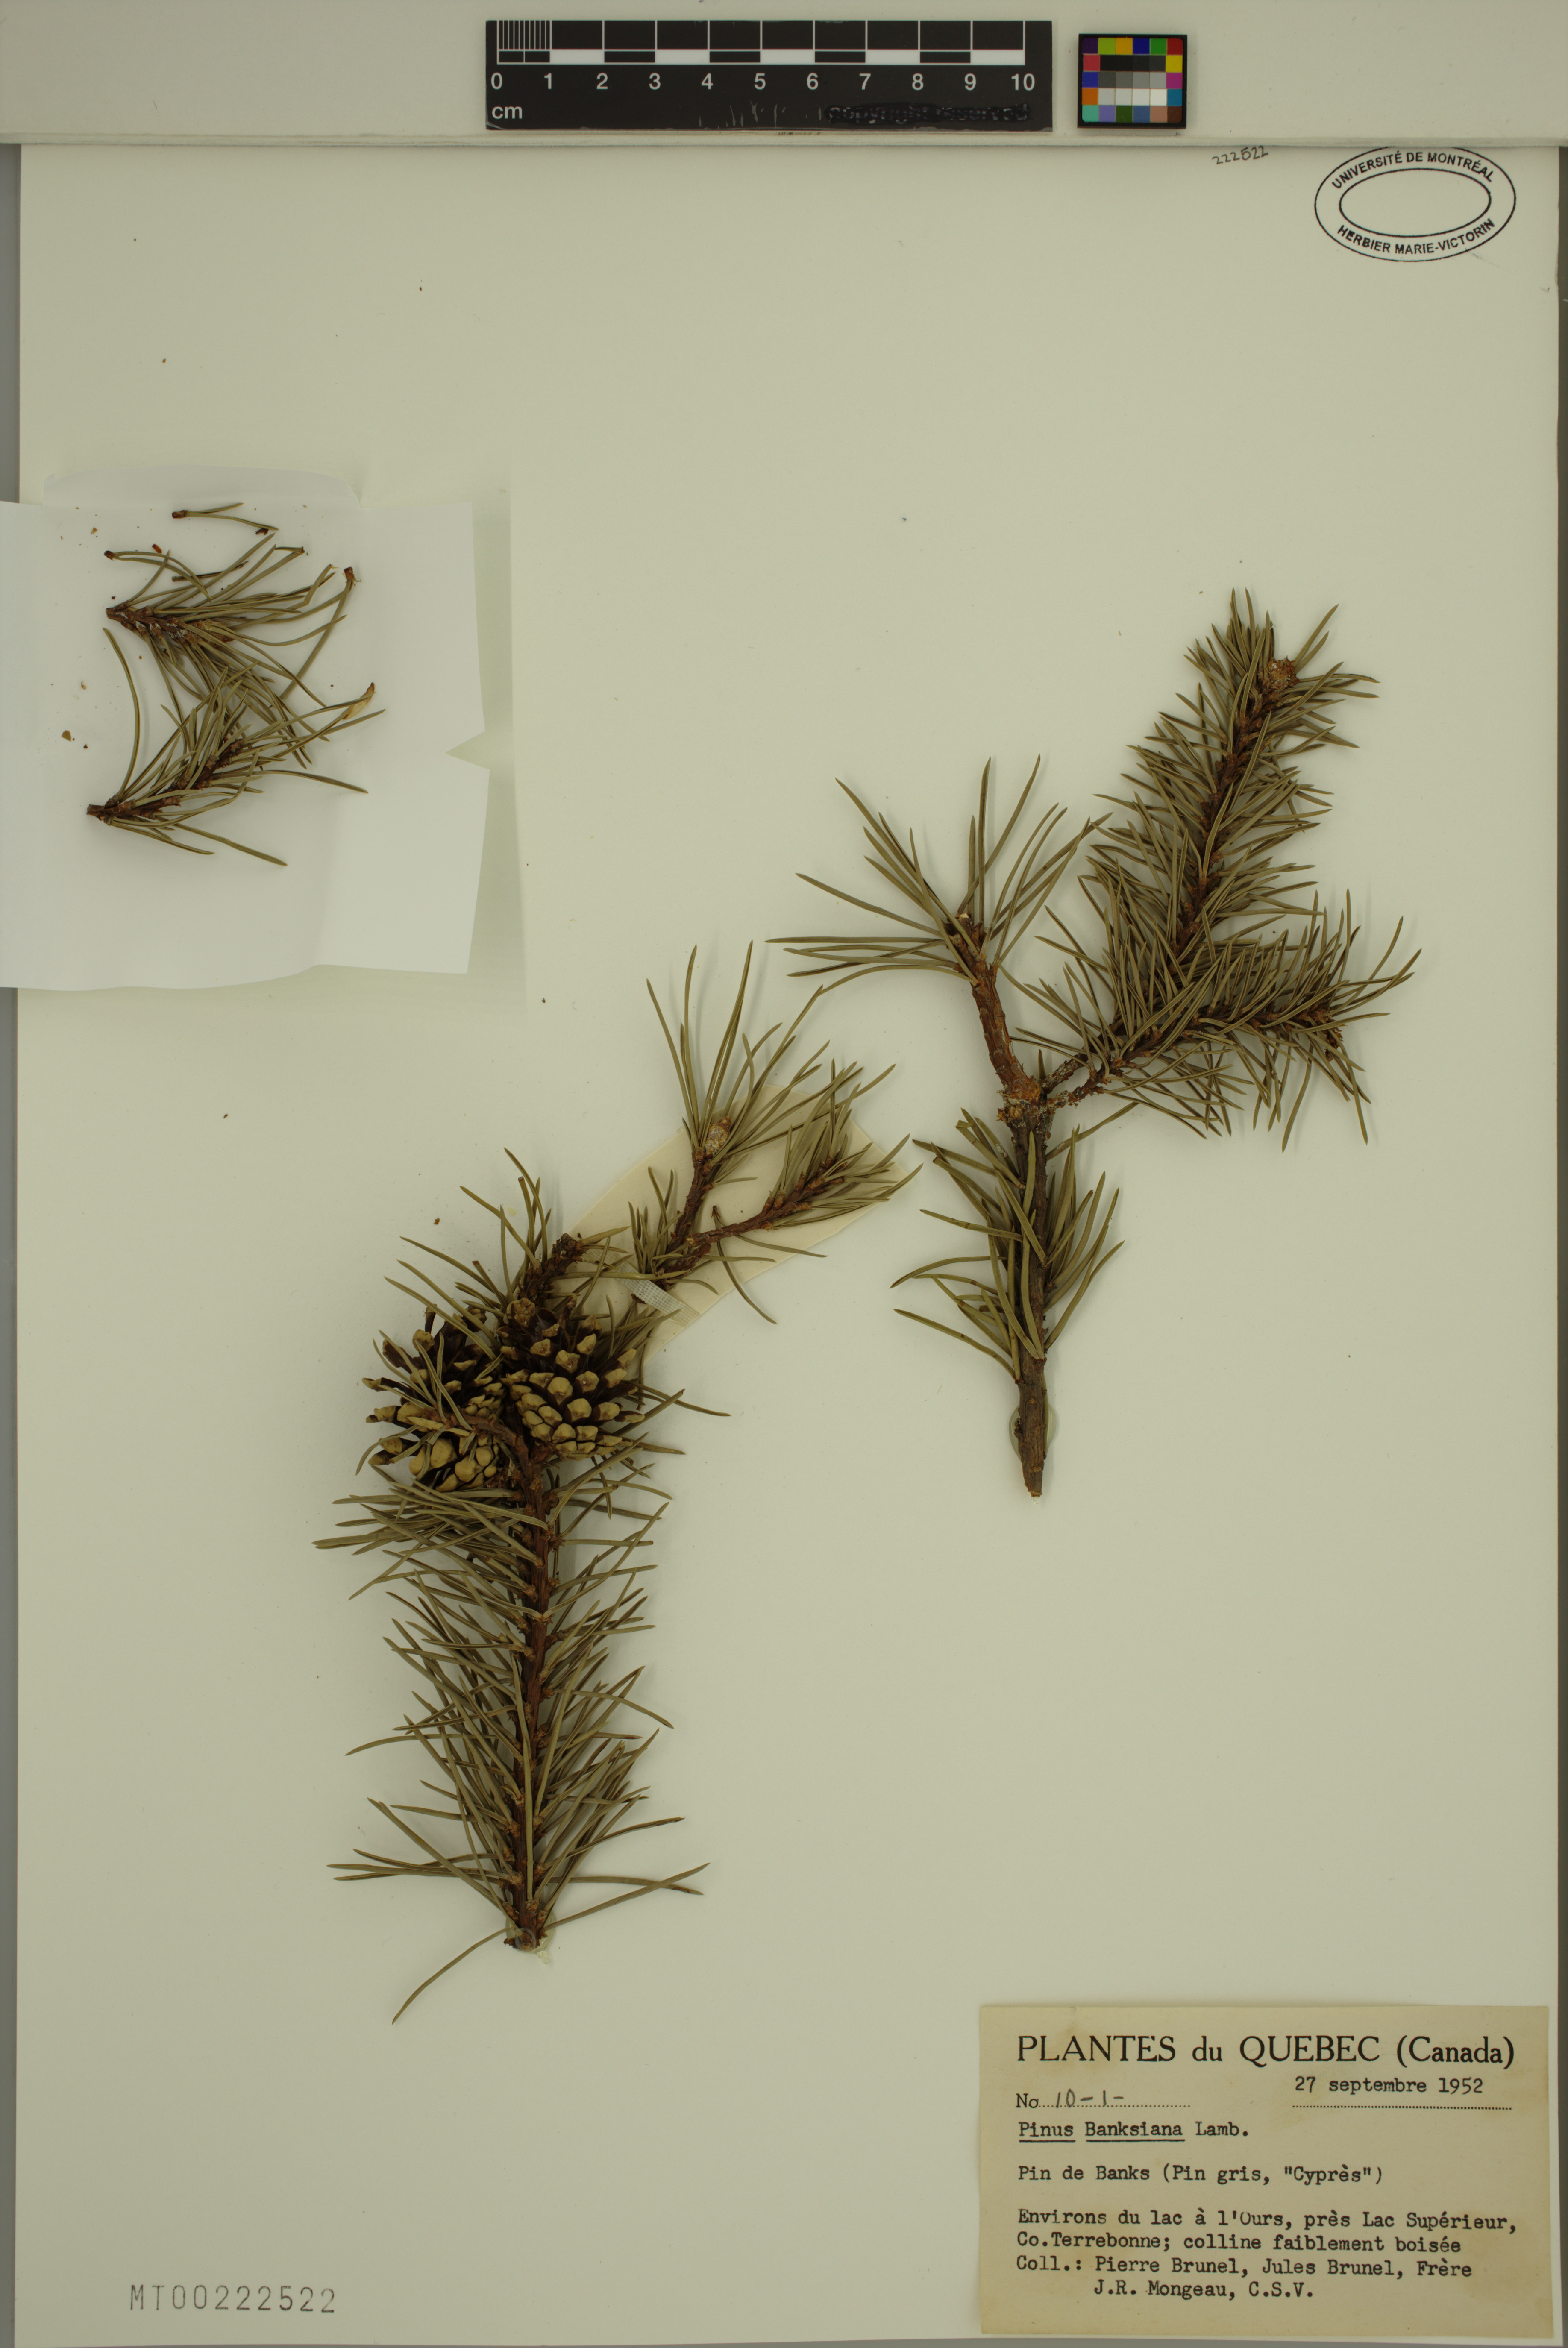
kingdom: Plantae
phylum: Tracheophyta
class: Pinopsida
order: Pinales
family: Pinaceae
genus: Pinus
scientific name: Pinus banksiana
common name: Jack pine
